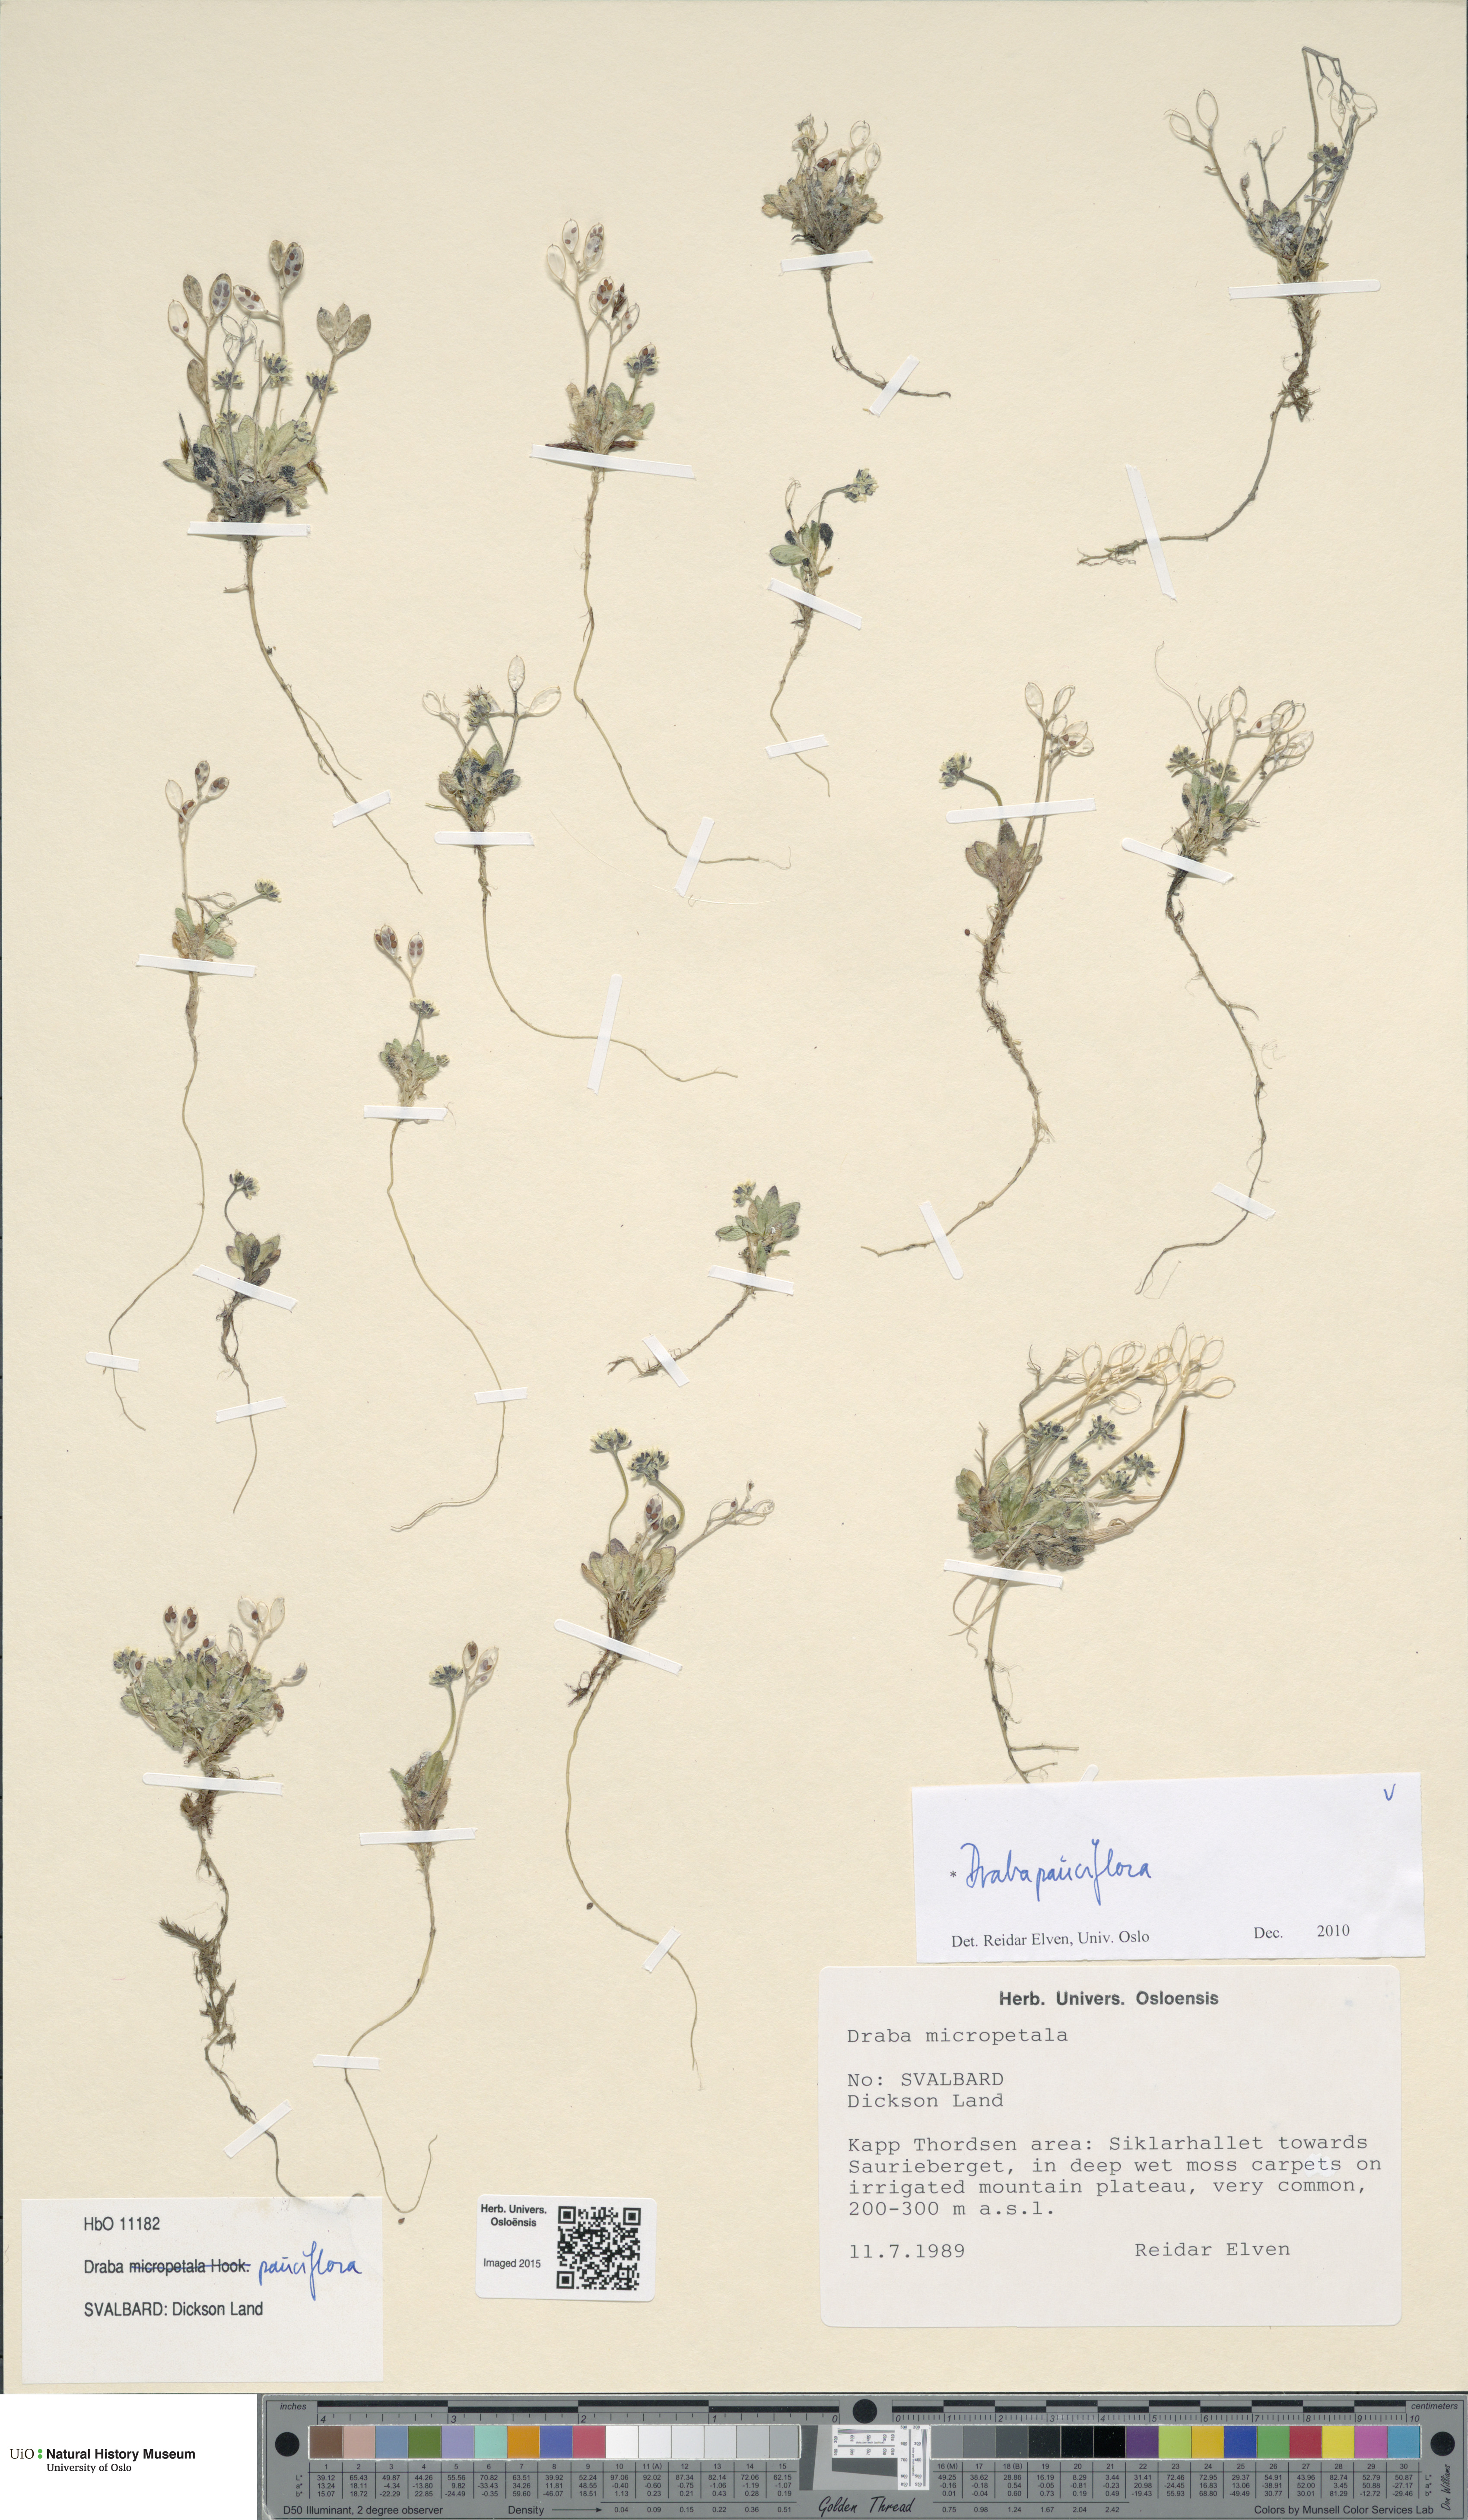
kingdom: Plantae
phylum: Tracheophyta
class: Magnoliopsida
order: Brassicales
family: Brassicaceae
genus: Draba
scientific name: Draba pauciflora
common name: Few-flowered draba
